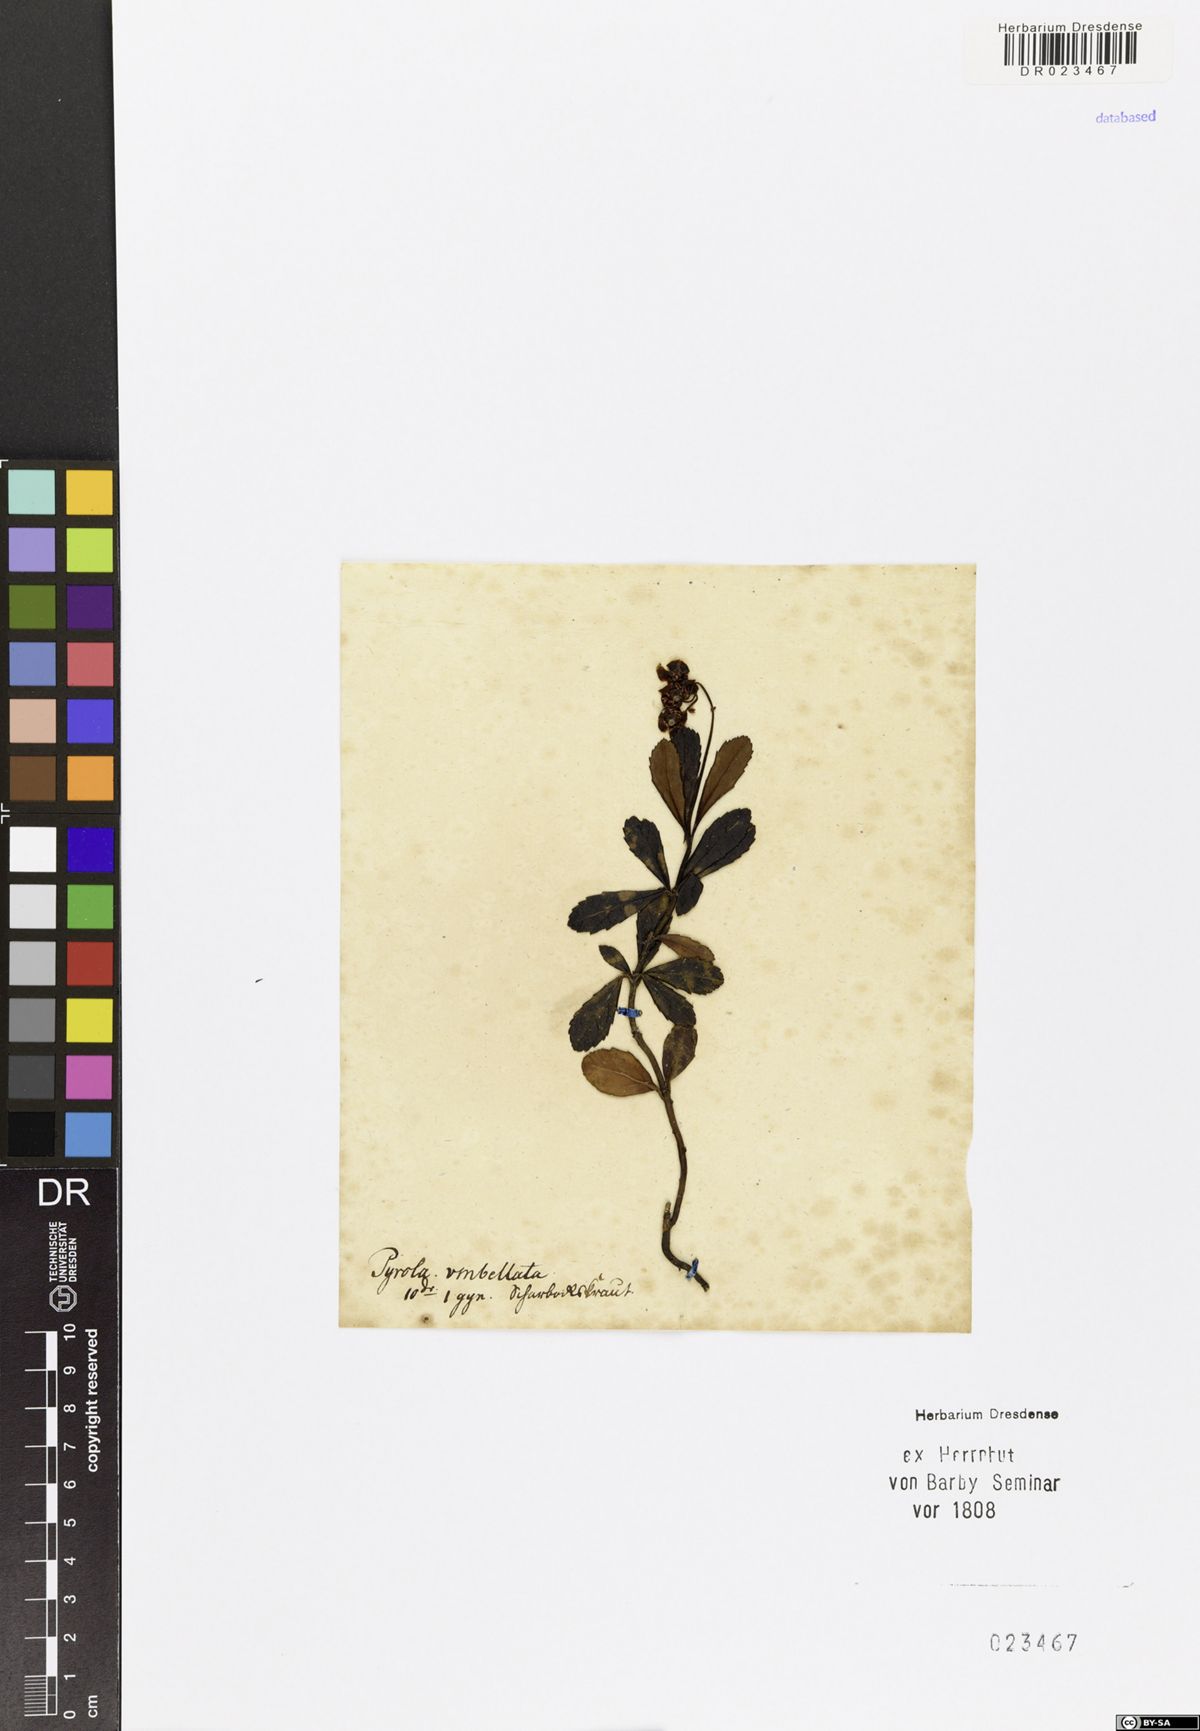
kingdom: Plantae
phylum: Tracheophyta
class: Magnoliopsida
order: Ericales
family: Ericaceae
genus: Chimaphila
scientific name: Chimaphila umbellata
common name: Pipsissewa
